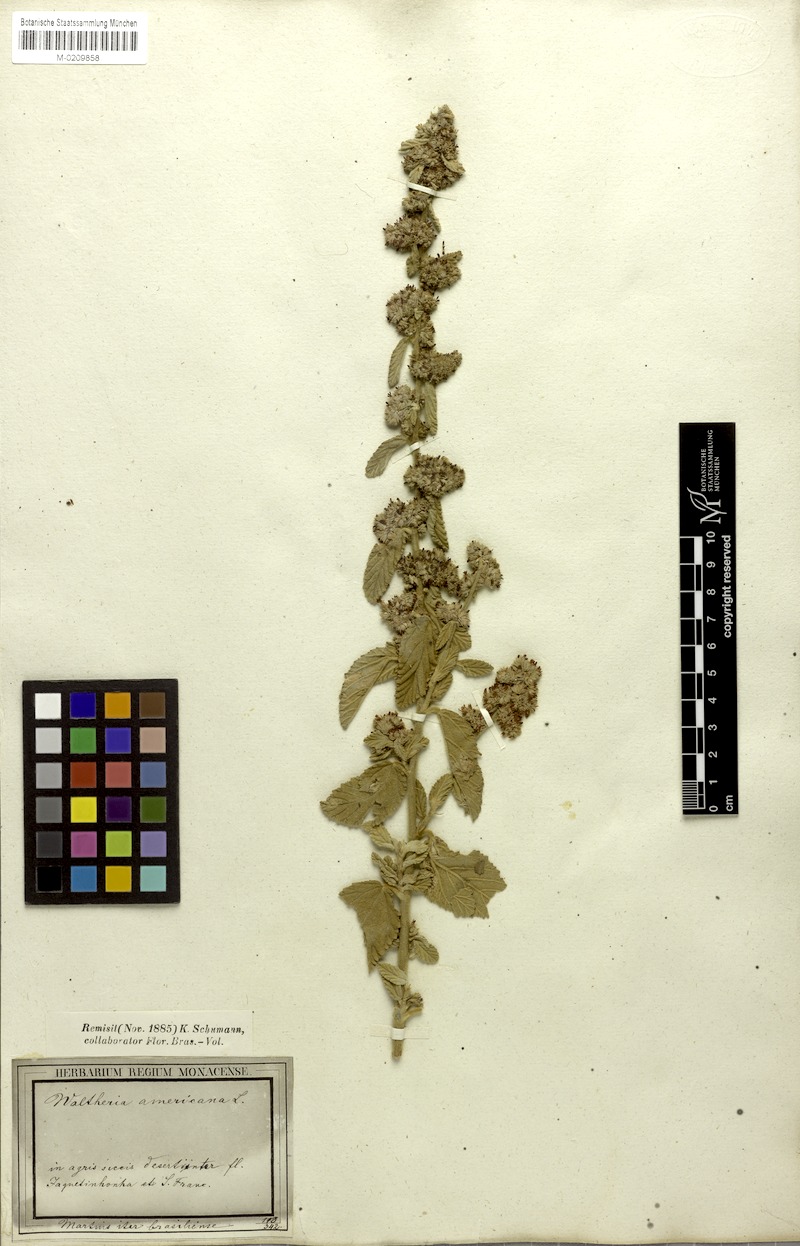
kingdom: Plantae
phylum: Tracheophyta
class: Magnoliopsida
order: Malvales
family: Malvaceae
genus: Waltheria
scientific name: Waltheria indica
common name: Leather-coat
